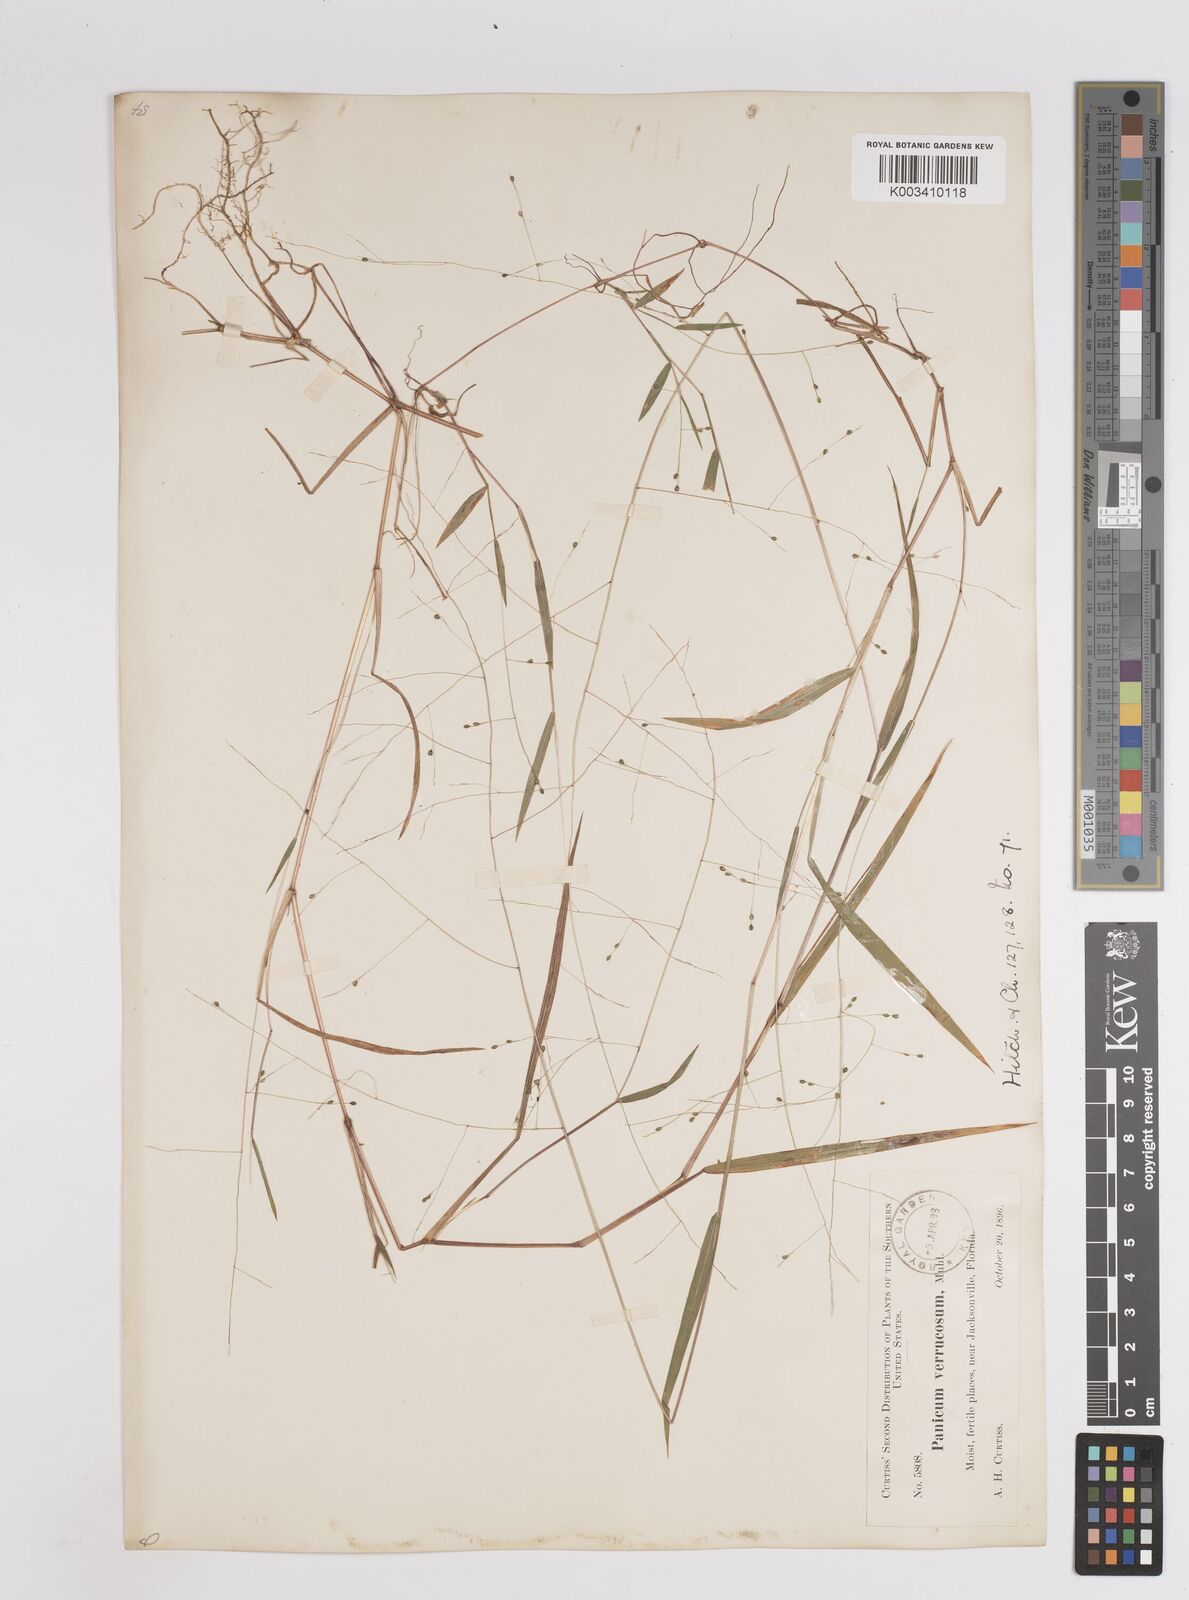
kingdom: Plantae
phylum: Tracheophyta
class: Liliopsida
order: Poales
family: Poaceae
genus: Kellochloa
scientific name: Kellochloa verrucosa
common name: Warty panic grass
